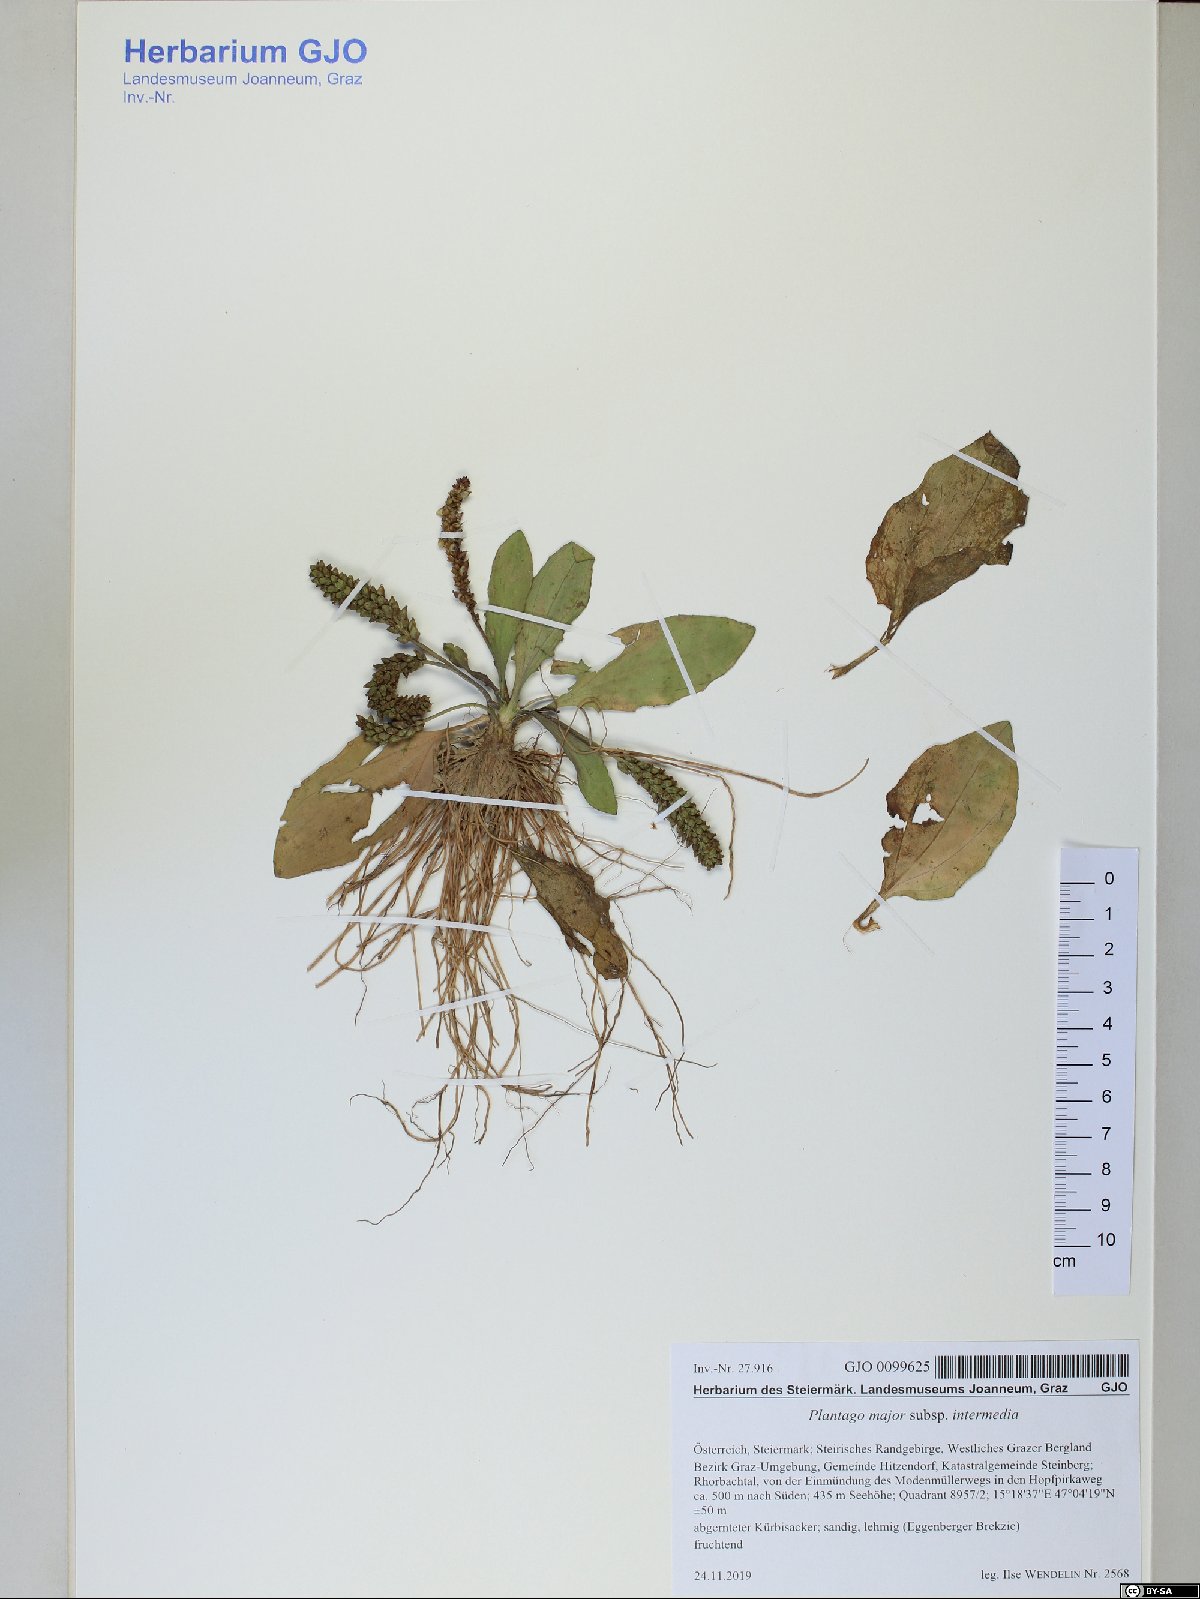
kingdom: Plantae
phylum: Tracheophyta
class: Magnoliopsida
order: Lamiales
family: Plantaginaceae
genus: Plantago
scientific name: Plantago uliginosa
